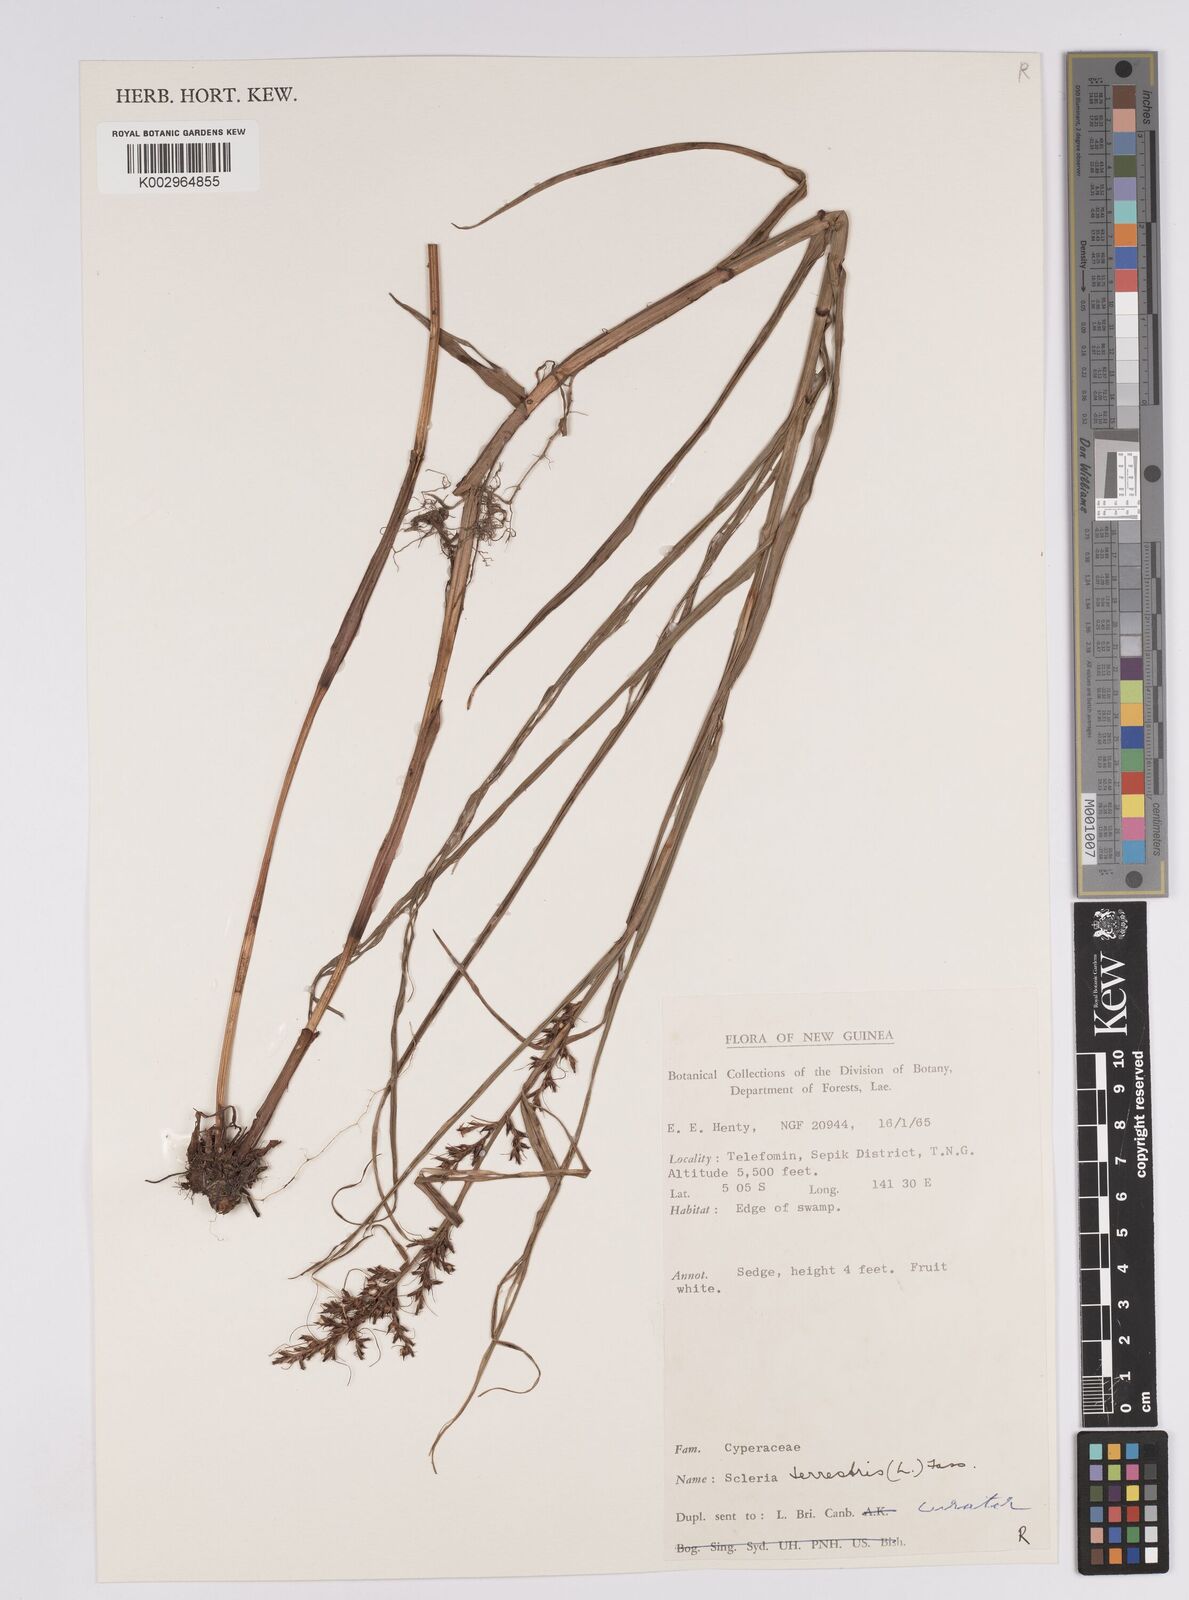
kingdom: Plantae
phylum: Tracheophyta
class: Liliopsida
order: Poales
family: Cyperaceae
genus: Scleria
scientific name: Scleria terrestris
